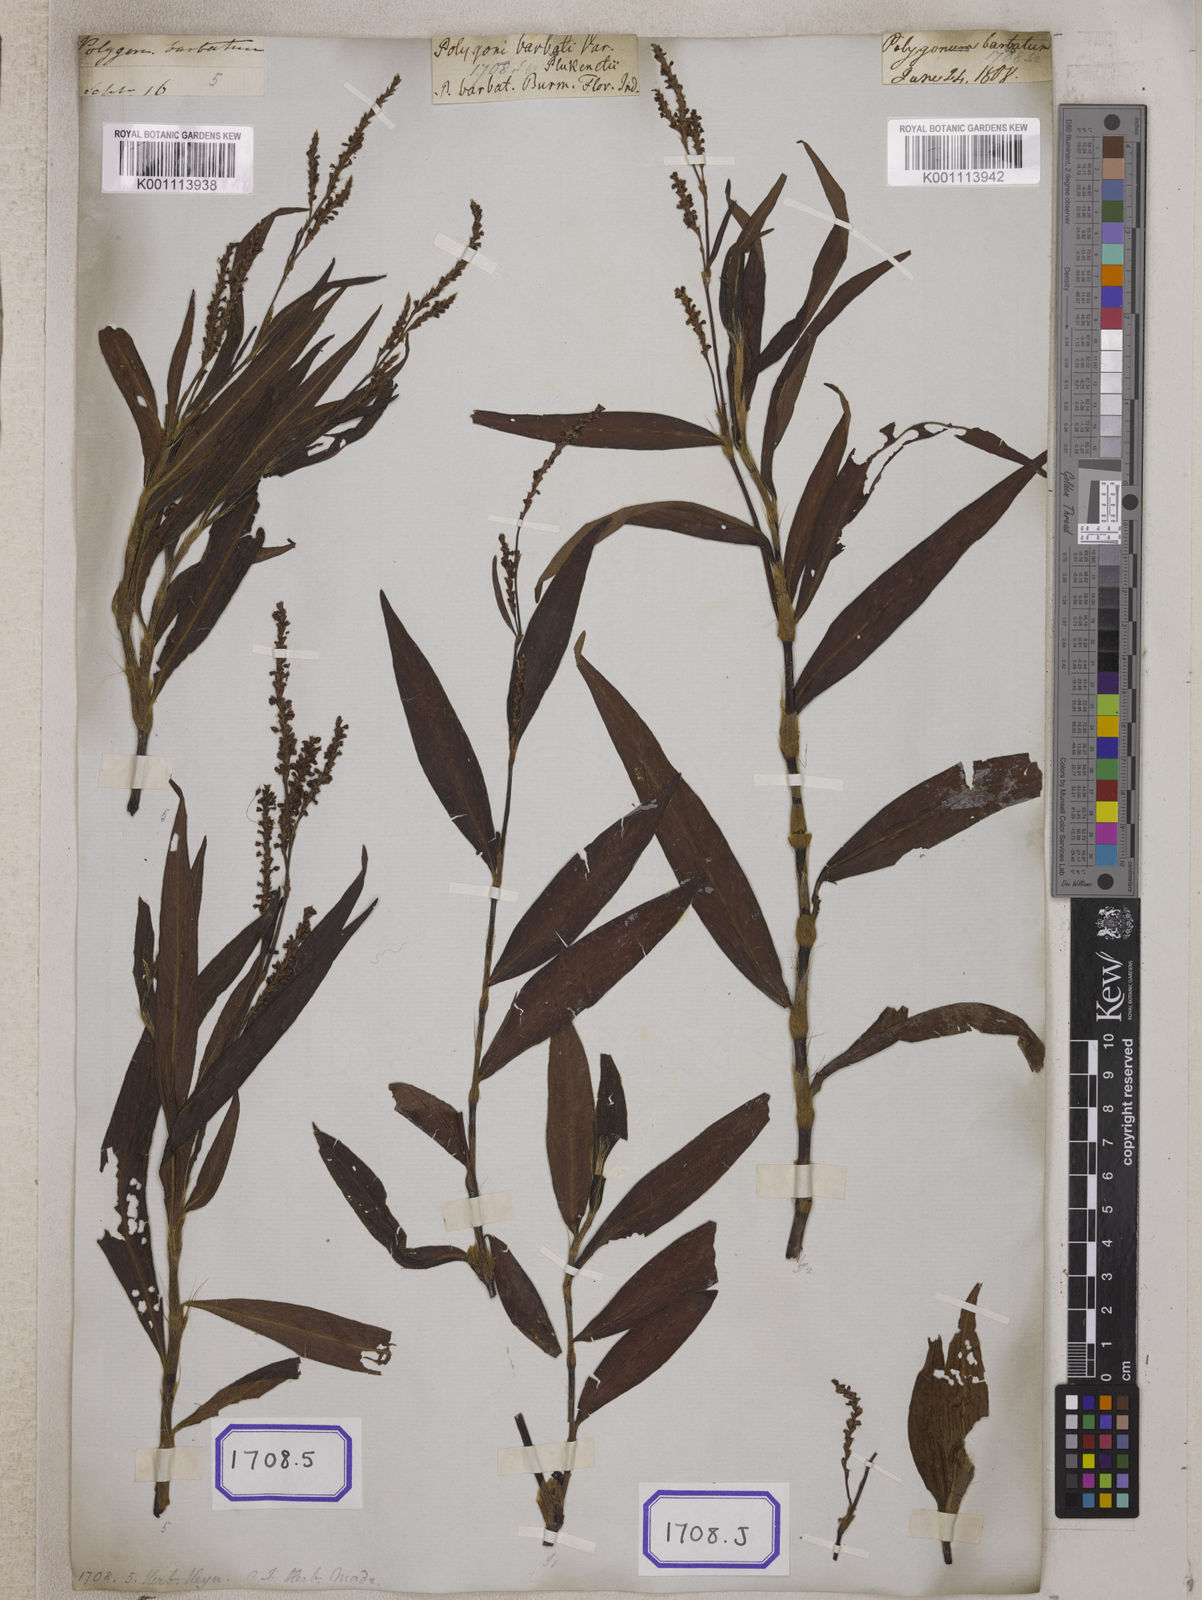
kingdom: Plantae
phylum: Tracheophyta
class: Magnoliopsida
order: Caryophyllales
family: Polygonaceae
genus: Persicaria
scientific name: Persicaria barbata
